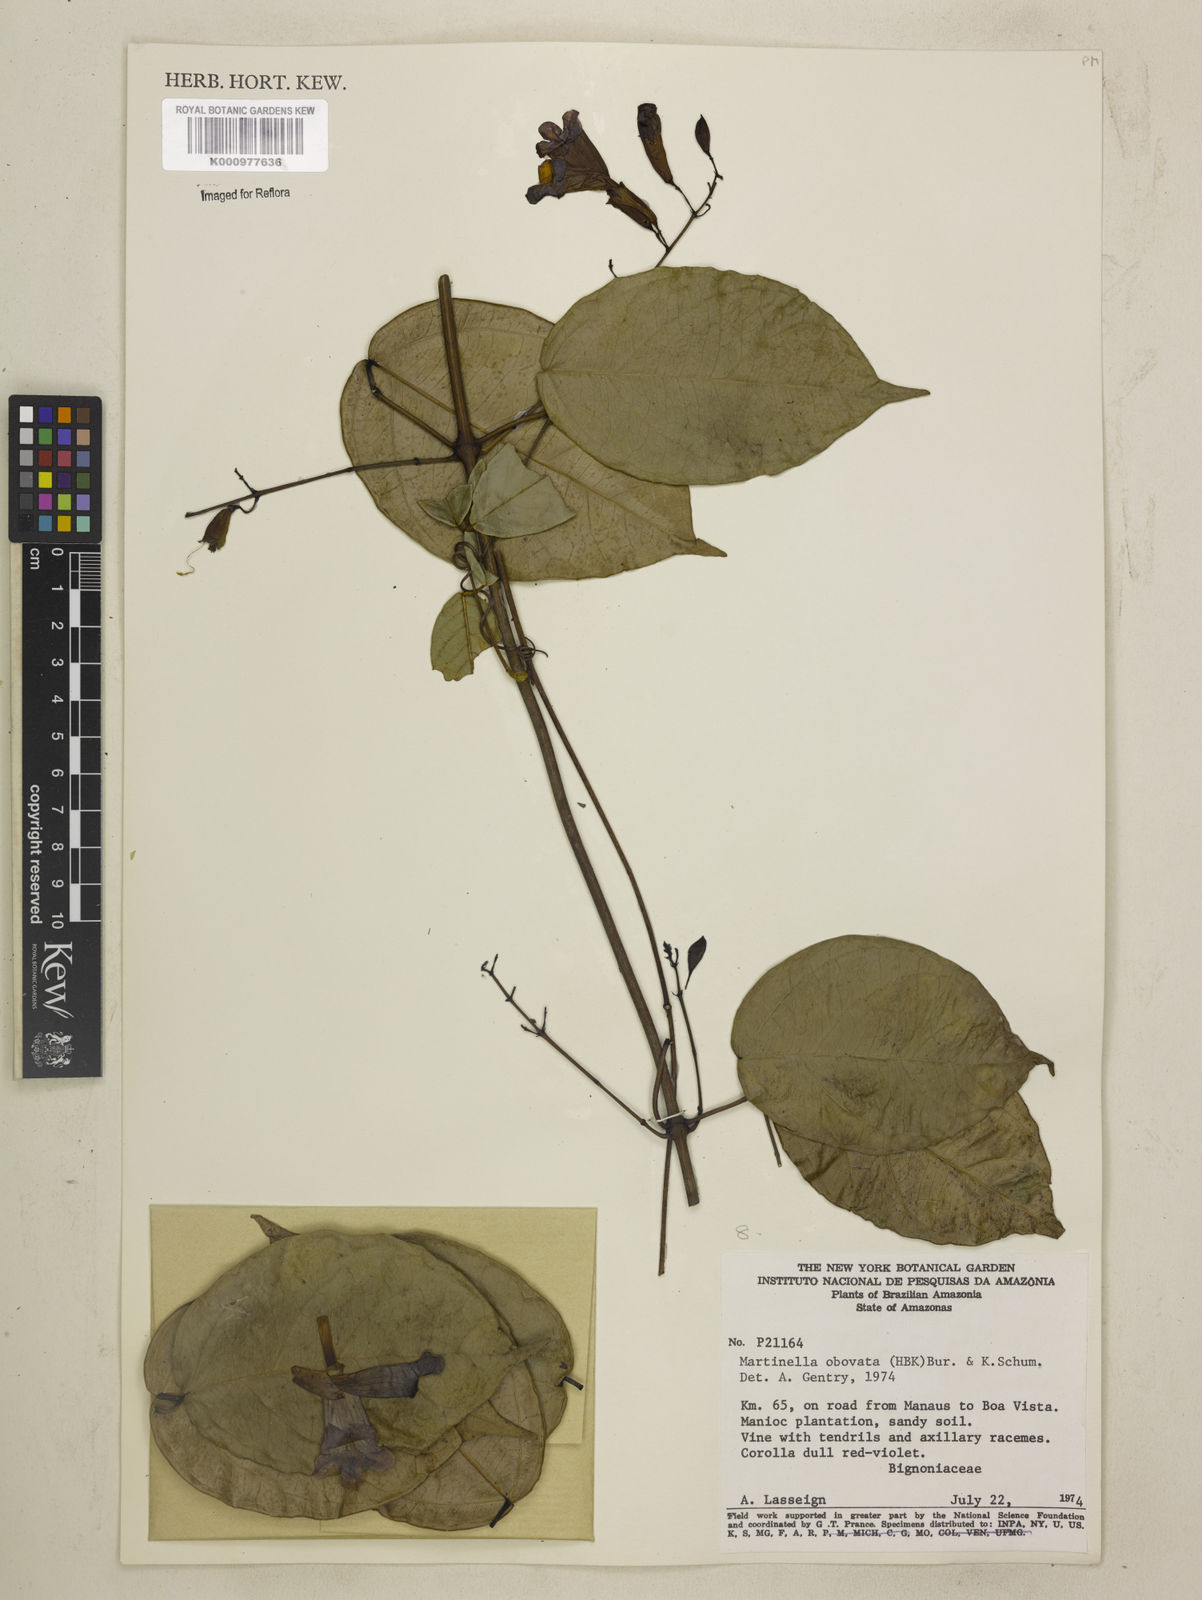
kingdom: Animalia
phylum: Arthropoda
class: Insecta
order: Coleoptera
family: Chrysomelidae
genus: Martinella
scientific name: Martinella obovata
